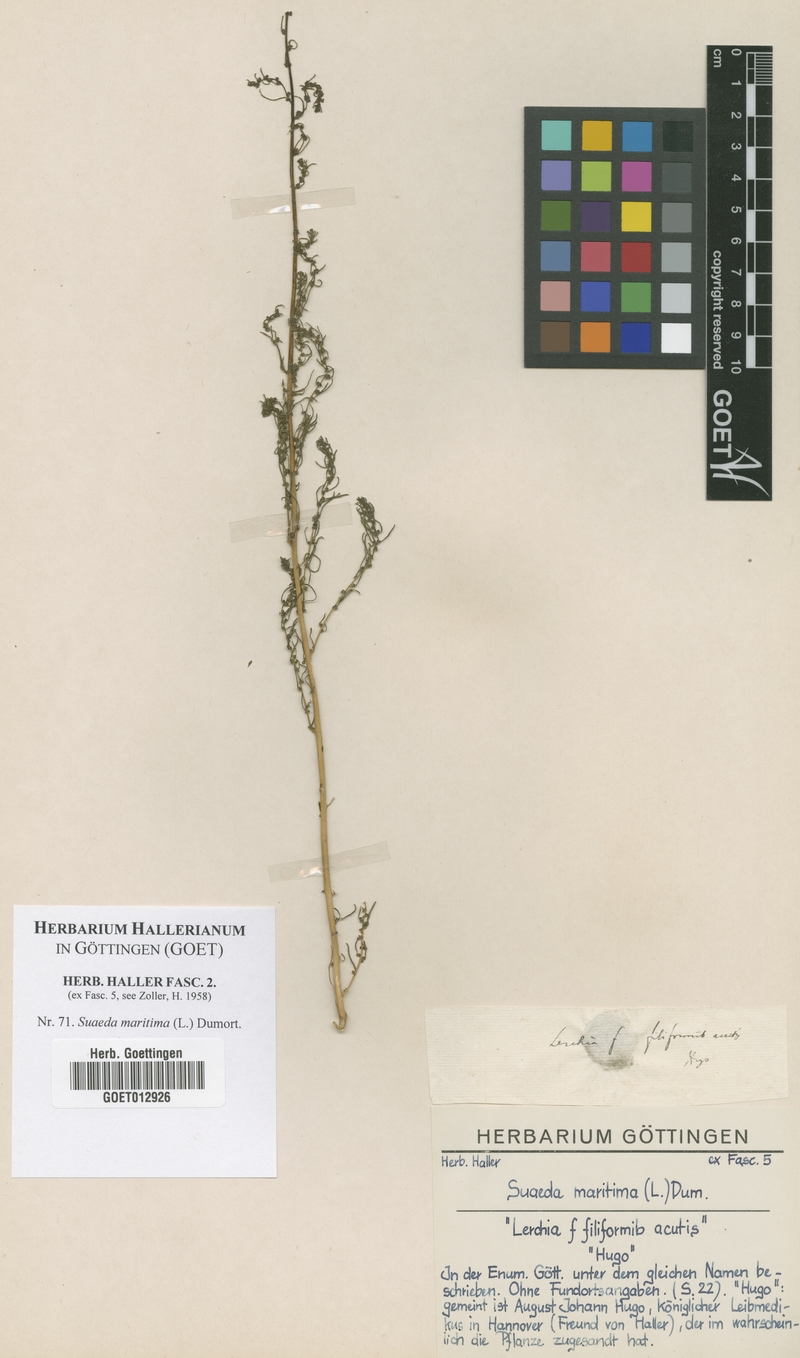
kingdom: Plantae
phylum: Tracheophyta
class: Magnoliopsida
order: Caryophyllales
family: Amaranthaceae
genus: Suaeda
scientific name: Suaeda maritima
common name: Annual sea-blite
